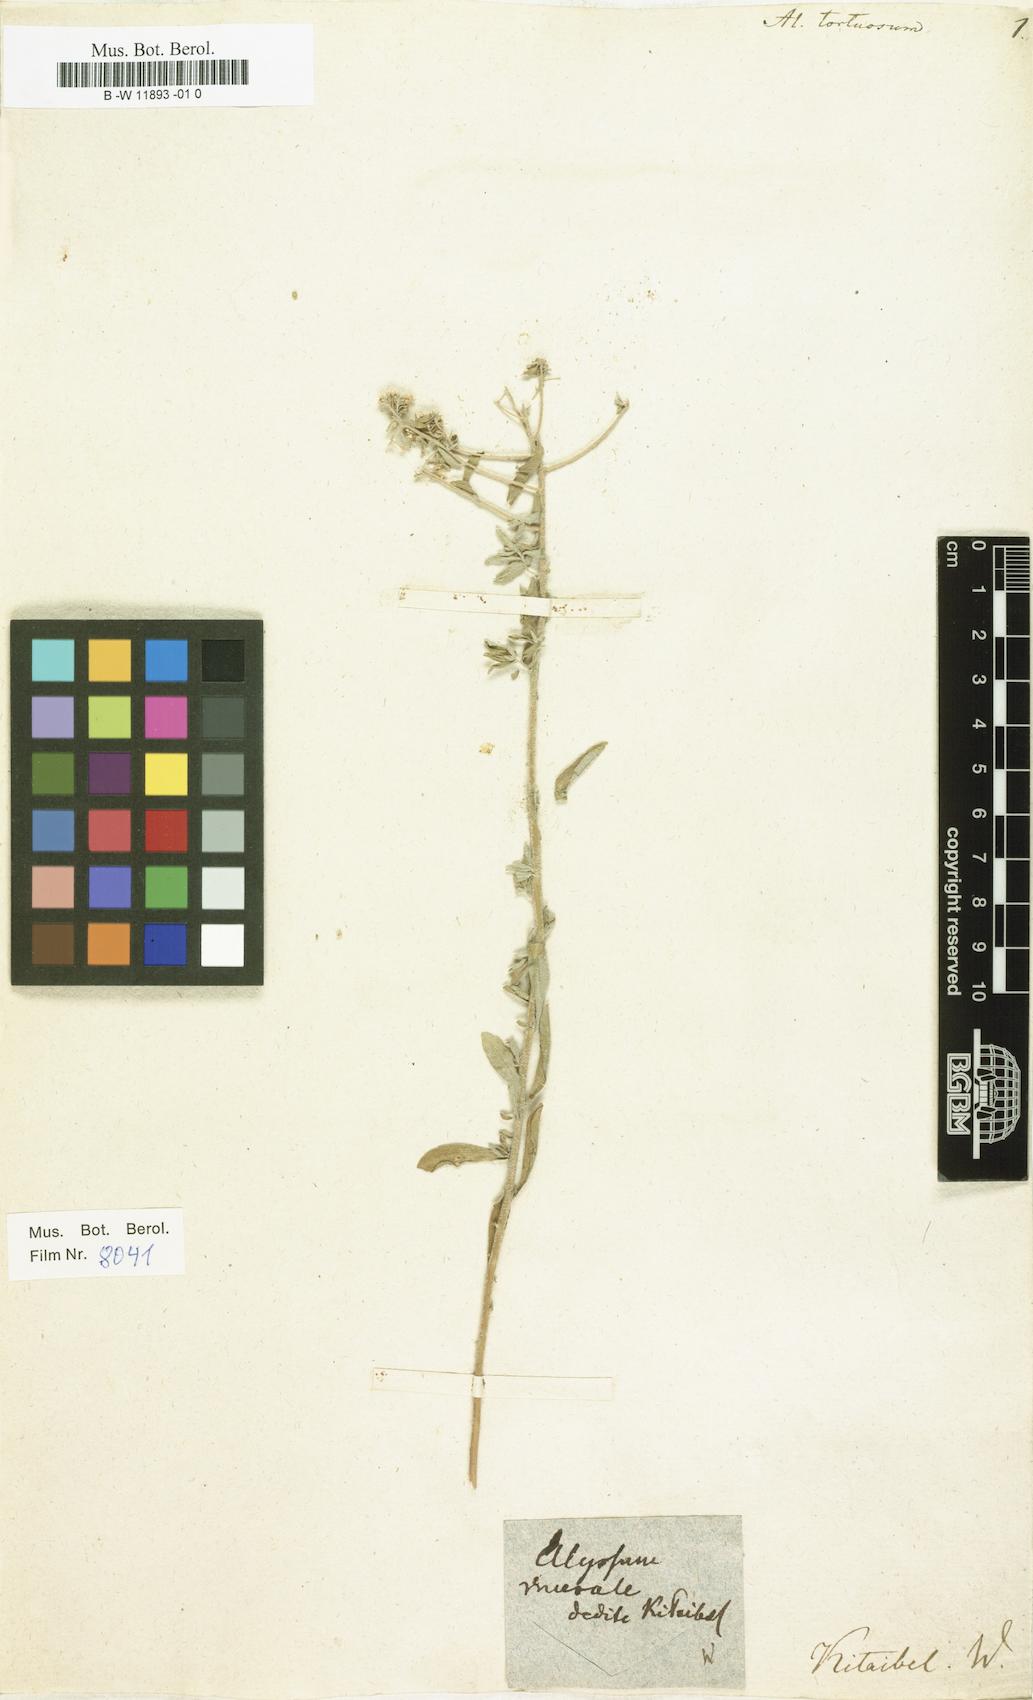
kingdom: Plantae
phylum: Tracheophyta
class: Magnoliopsida
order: Brassicales
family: Brassicaceae
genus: Odontarrhena
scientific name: Odontarrhena tortuosa
